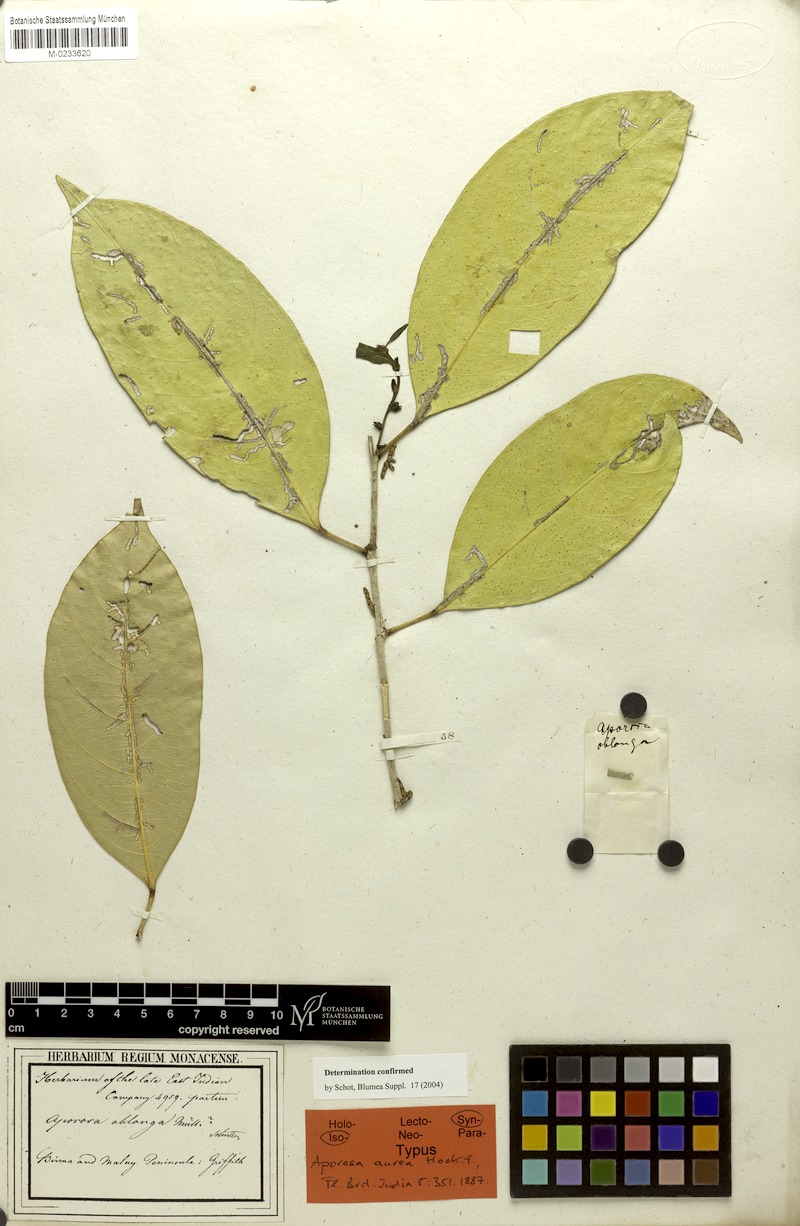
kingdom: Plantae
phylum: Tracheophyta
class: Magnoliopsida
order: Malpighiales
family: Phyllanthaceae
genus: Aporosa
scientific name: Aporosa aurea
